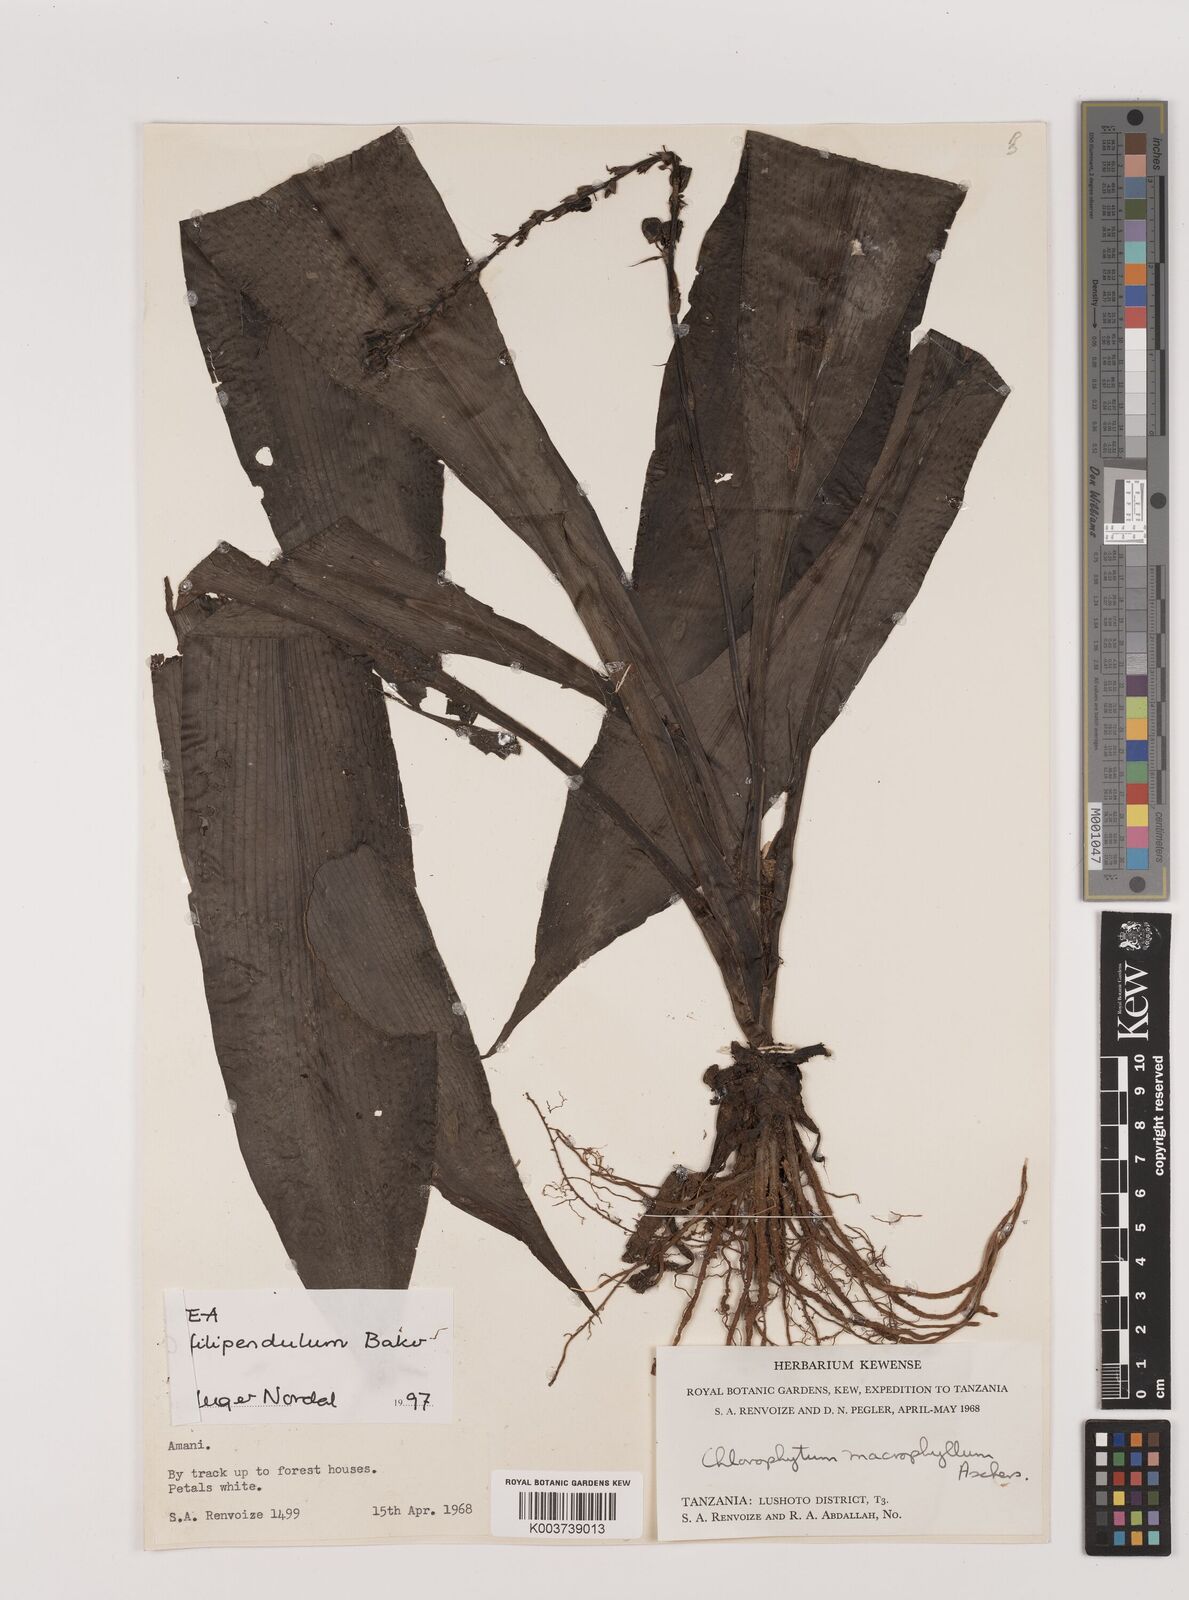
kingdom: Plantae
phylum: Tracheophyta
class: Liliopsida
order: Asparagales
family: Asparagaceae
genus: Chlorophytum
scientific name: Chlorophytum filipendulum
